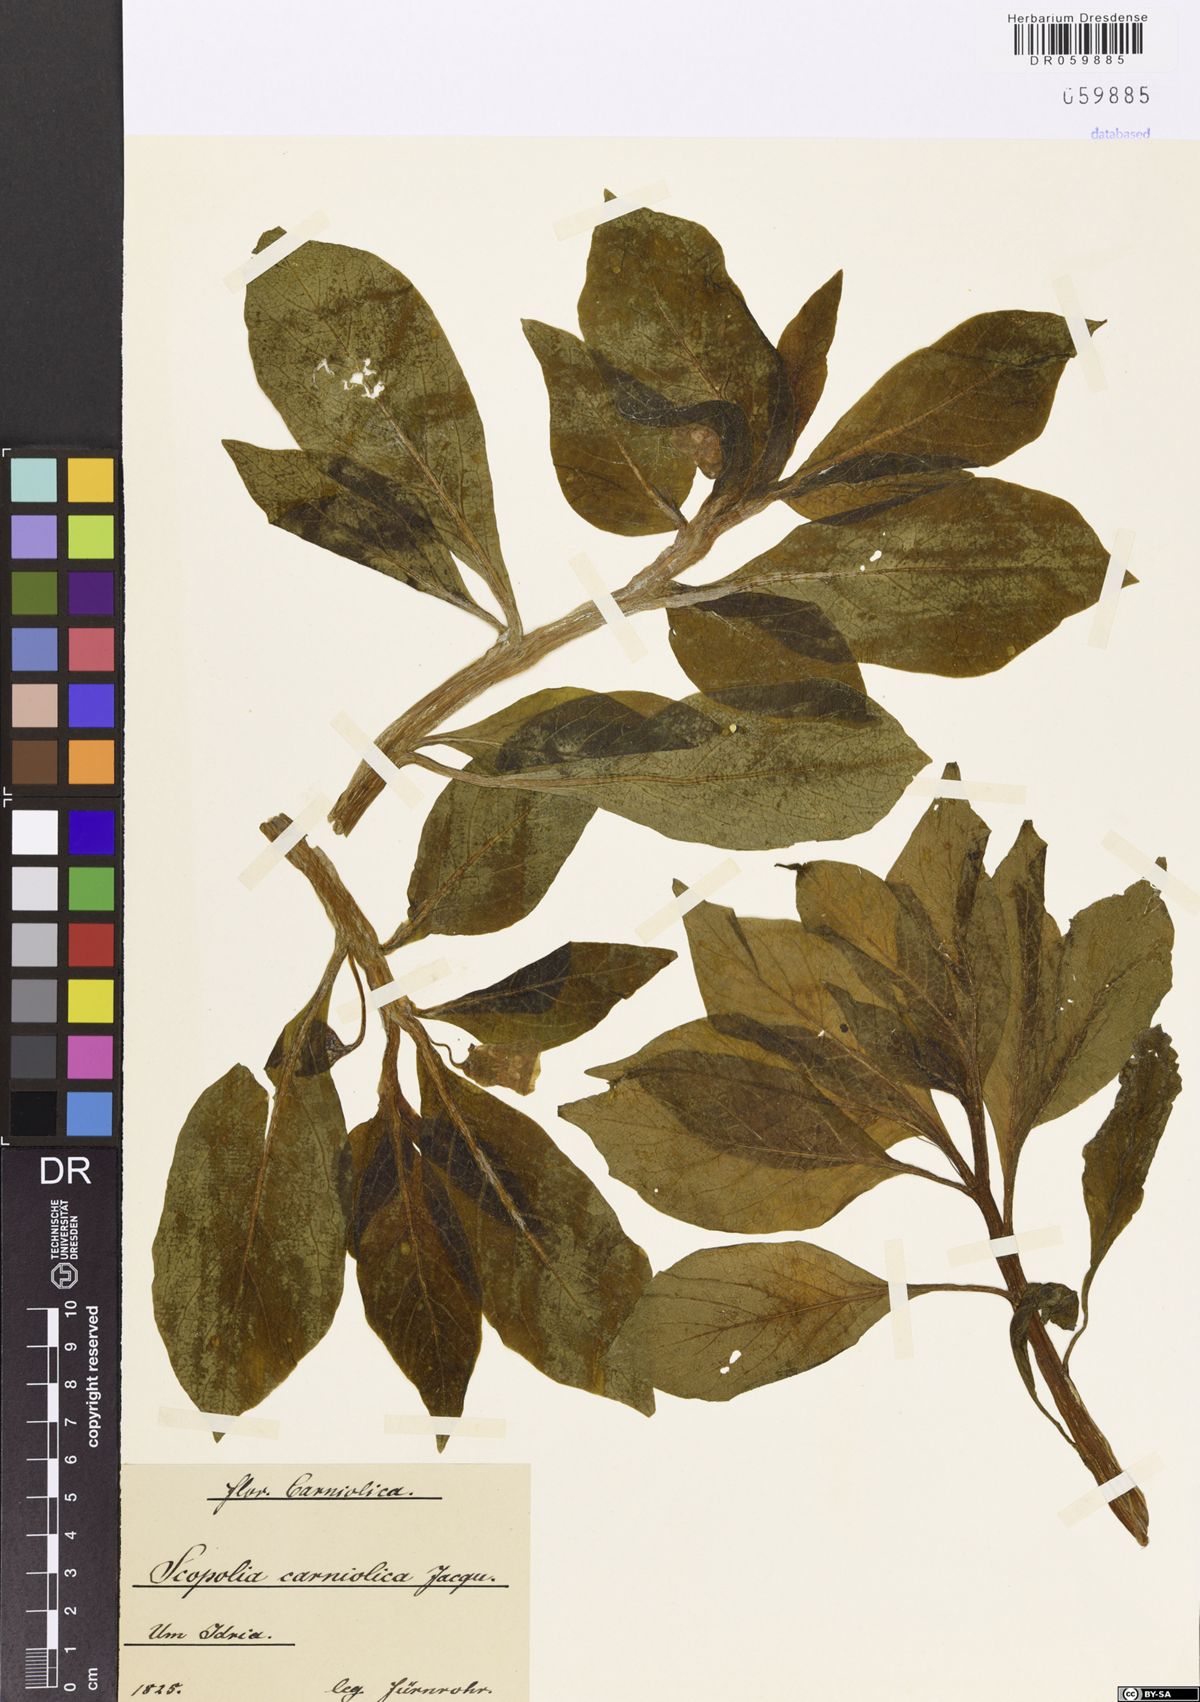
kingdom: Plantae
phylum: Tracheophyta
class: Magnoliopsida
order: Solanales
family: Solanaceae
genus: Scopolia
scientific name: Scopolia carniolica
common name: Scopolia
